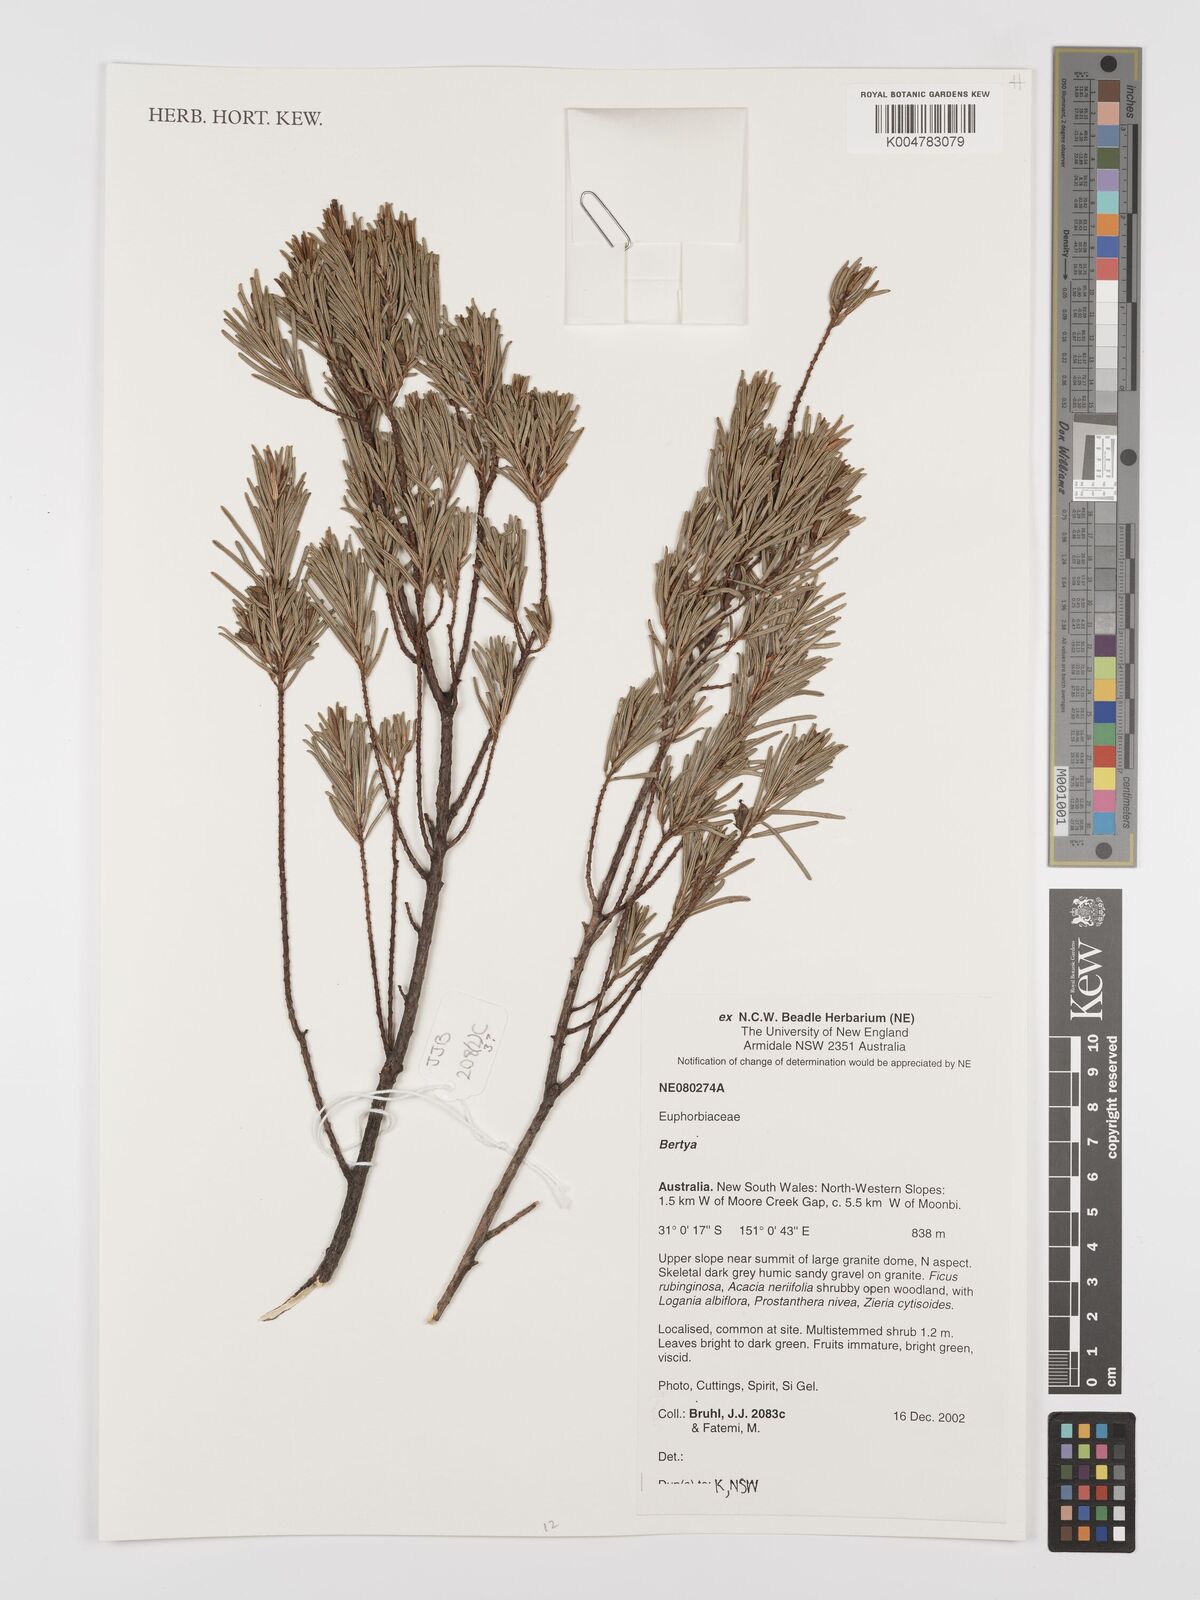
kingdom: Plantae
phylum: Tracheophyta
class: Magnoliopsida
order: Malpighiales
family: Euphorbiaceae
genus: Bertya
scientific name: Bertya
